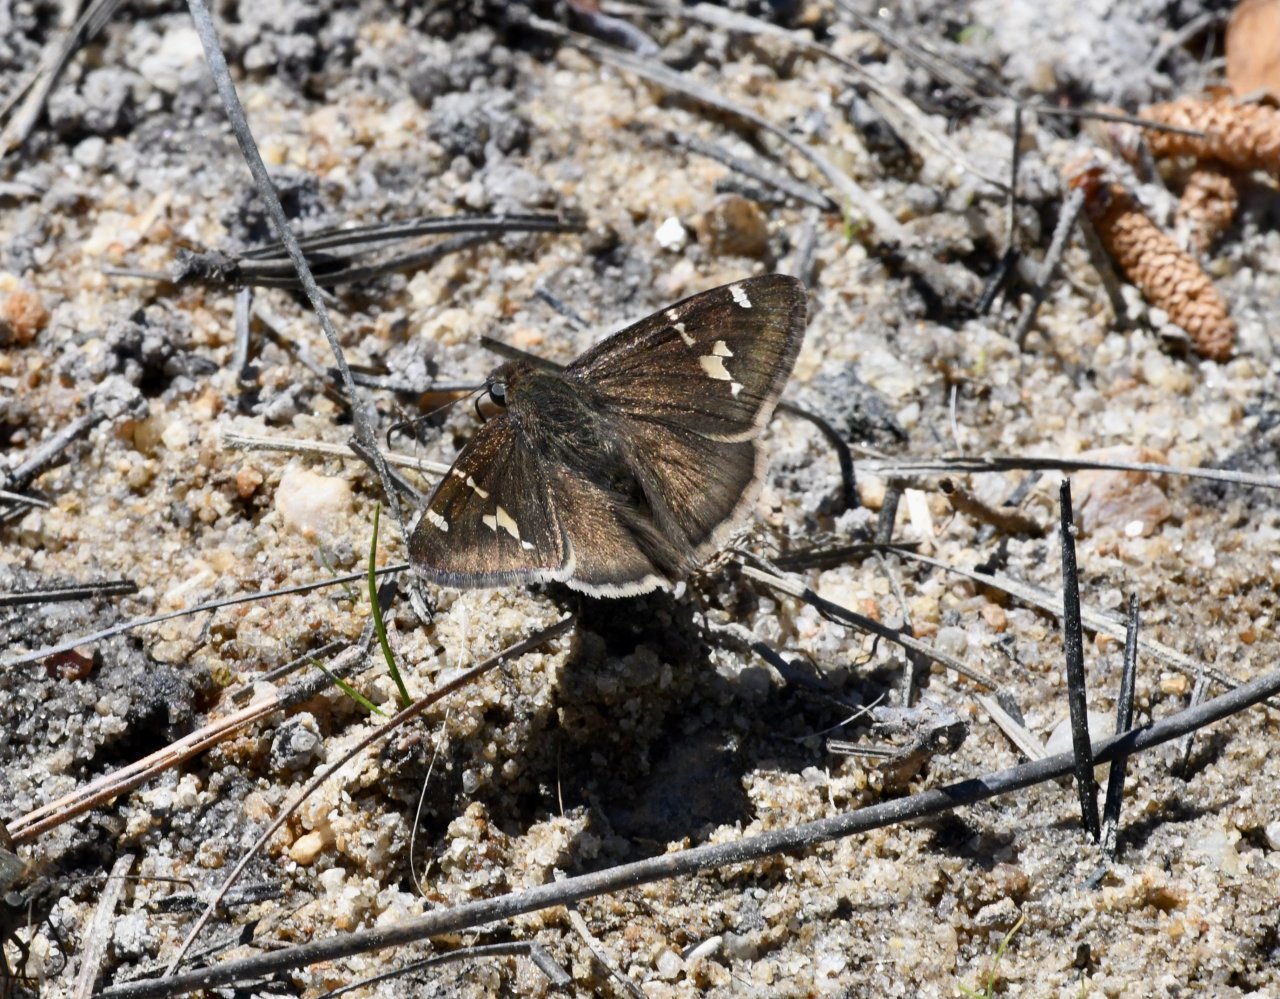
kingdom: Animalia
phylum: Arthropoda
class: Insecta
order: Lepidoptera
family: Hesperiidae
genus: Autochton
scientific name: Autochton
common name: Southern Cloudywing
